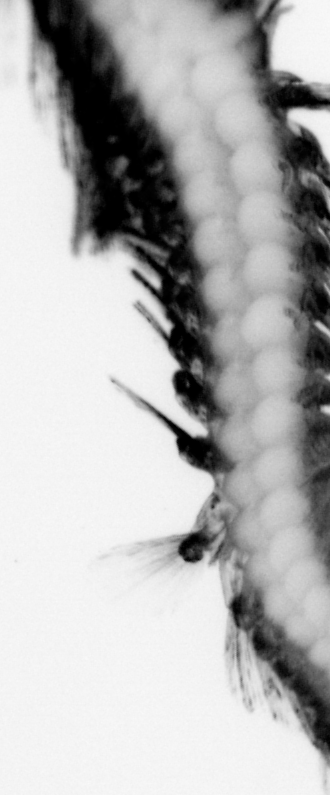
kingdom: Animalia
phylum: Annelida
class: Polychaeta
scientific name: Polychaeta
